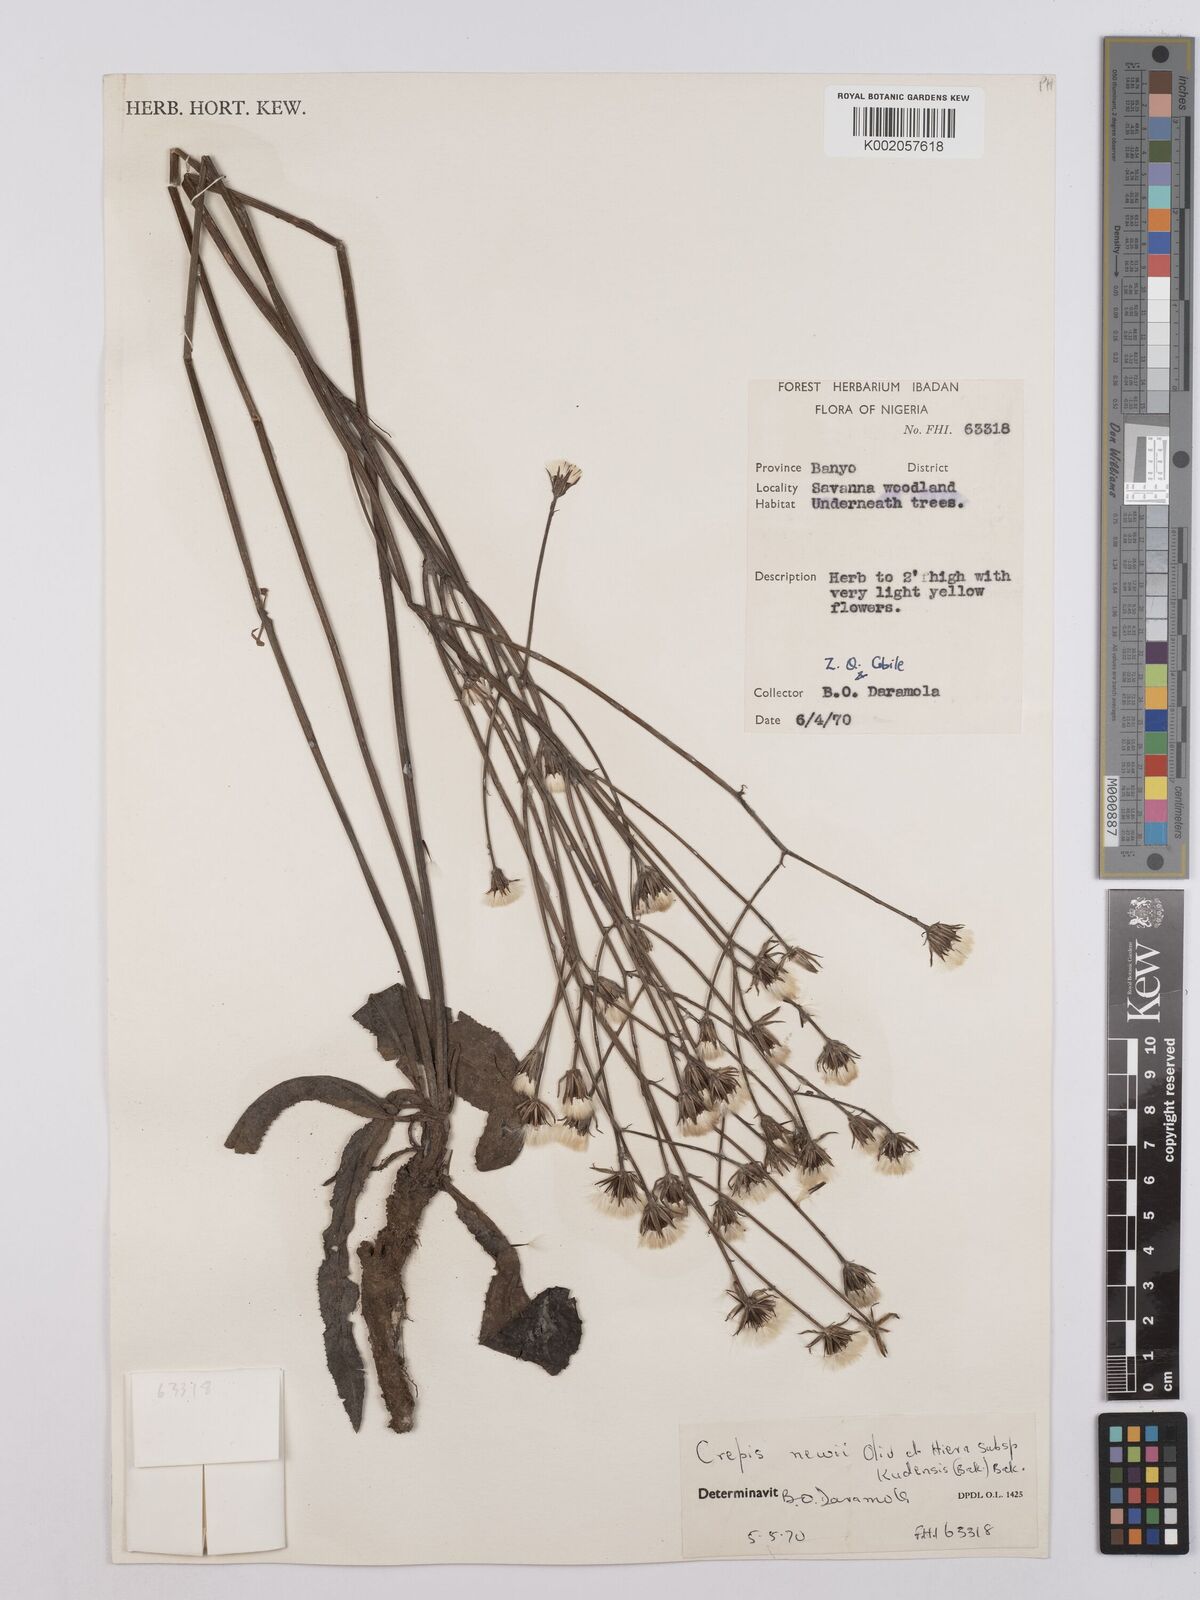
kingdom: Plantae
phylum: Tracheophyta
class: Magnoliopsida
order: Asterales
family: Asteraceae
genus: Crepis
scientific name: Crepis hypochoeridea
